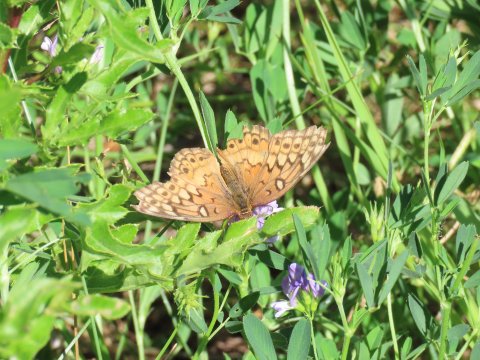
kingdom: Animalia
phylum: Arthropoda
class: Insecta
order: Lepidoptera
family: Nymphalidae
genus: Euptoieta
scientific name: Euptoieta claudia
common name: Variegated Fritillary
